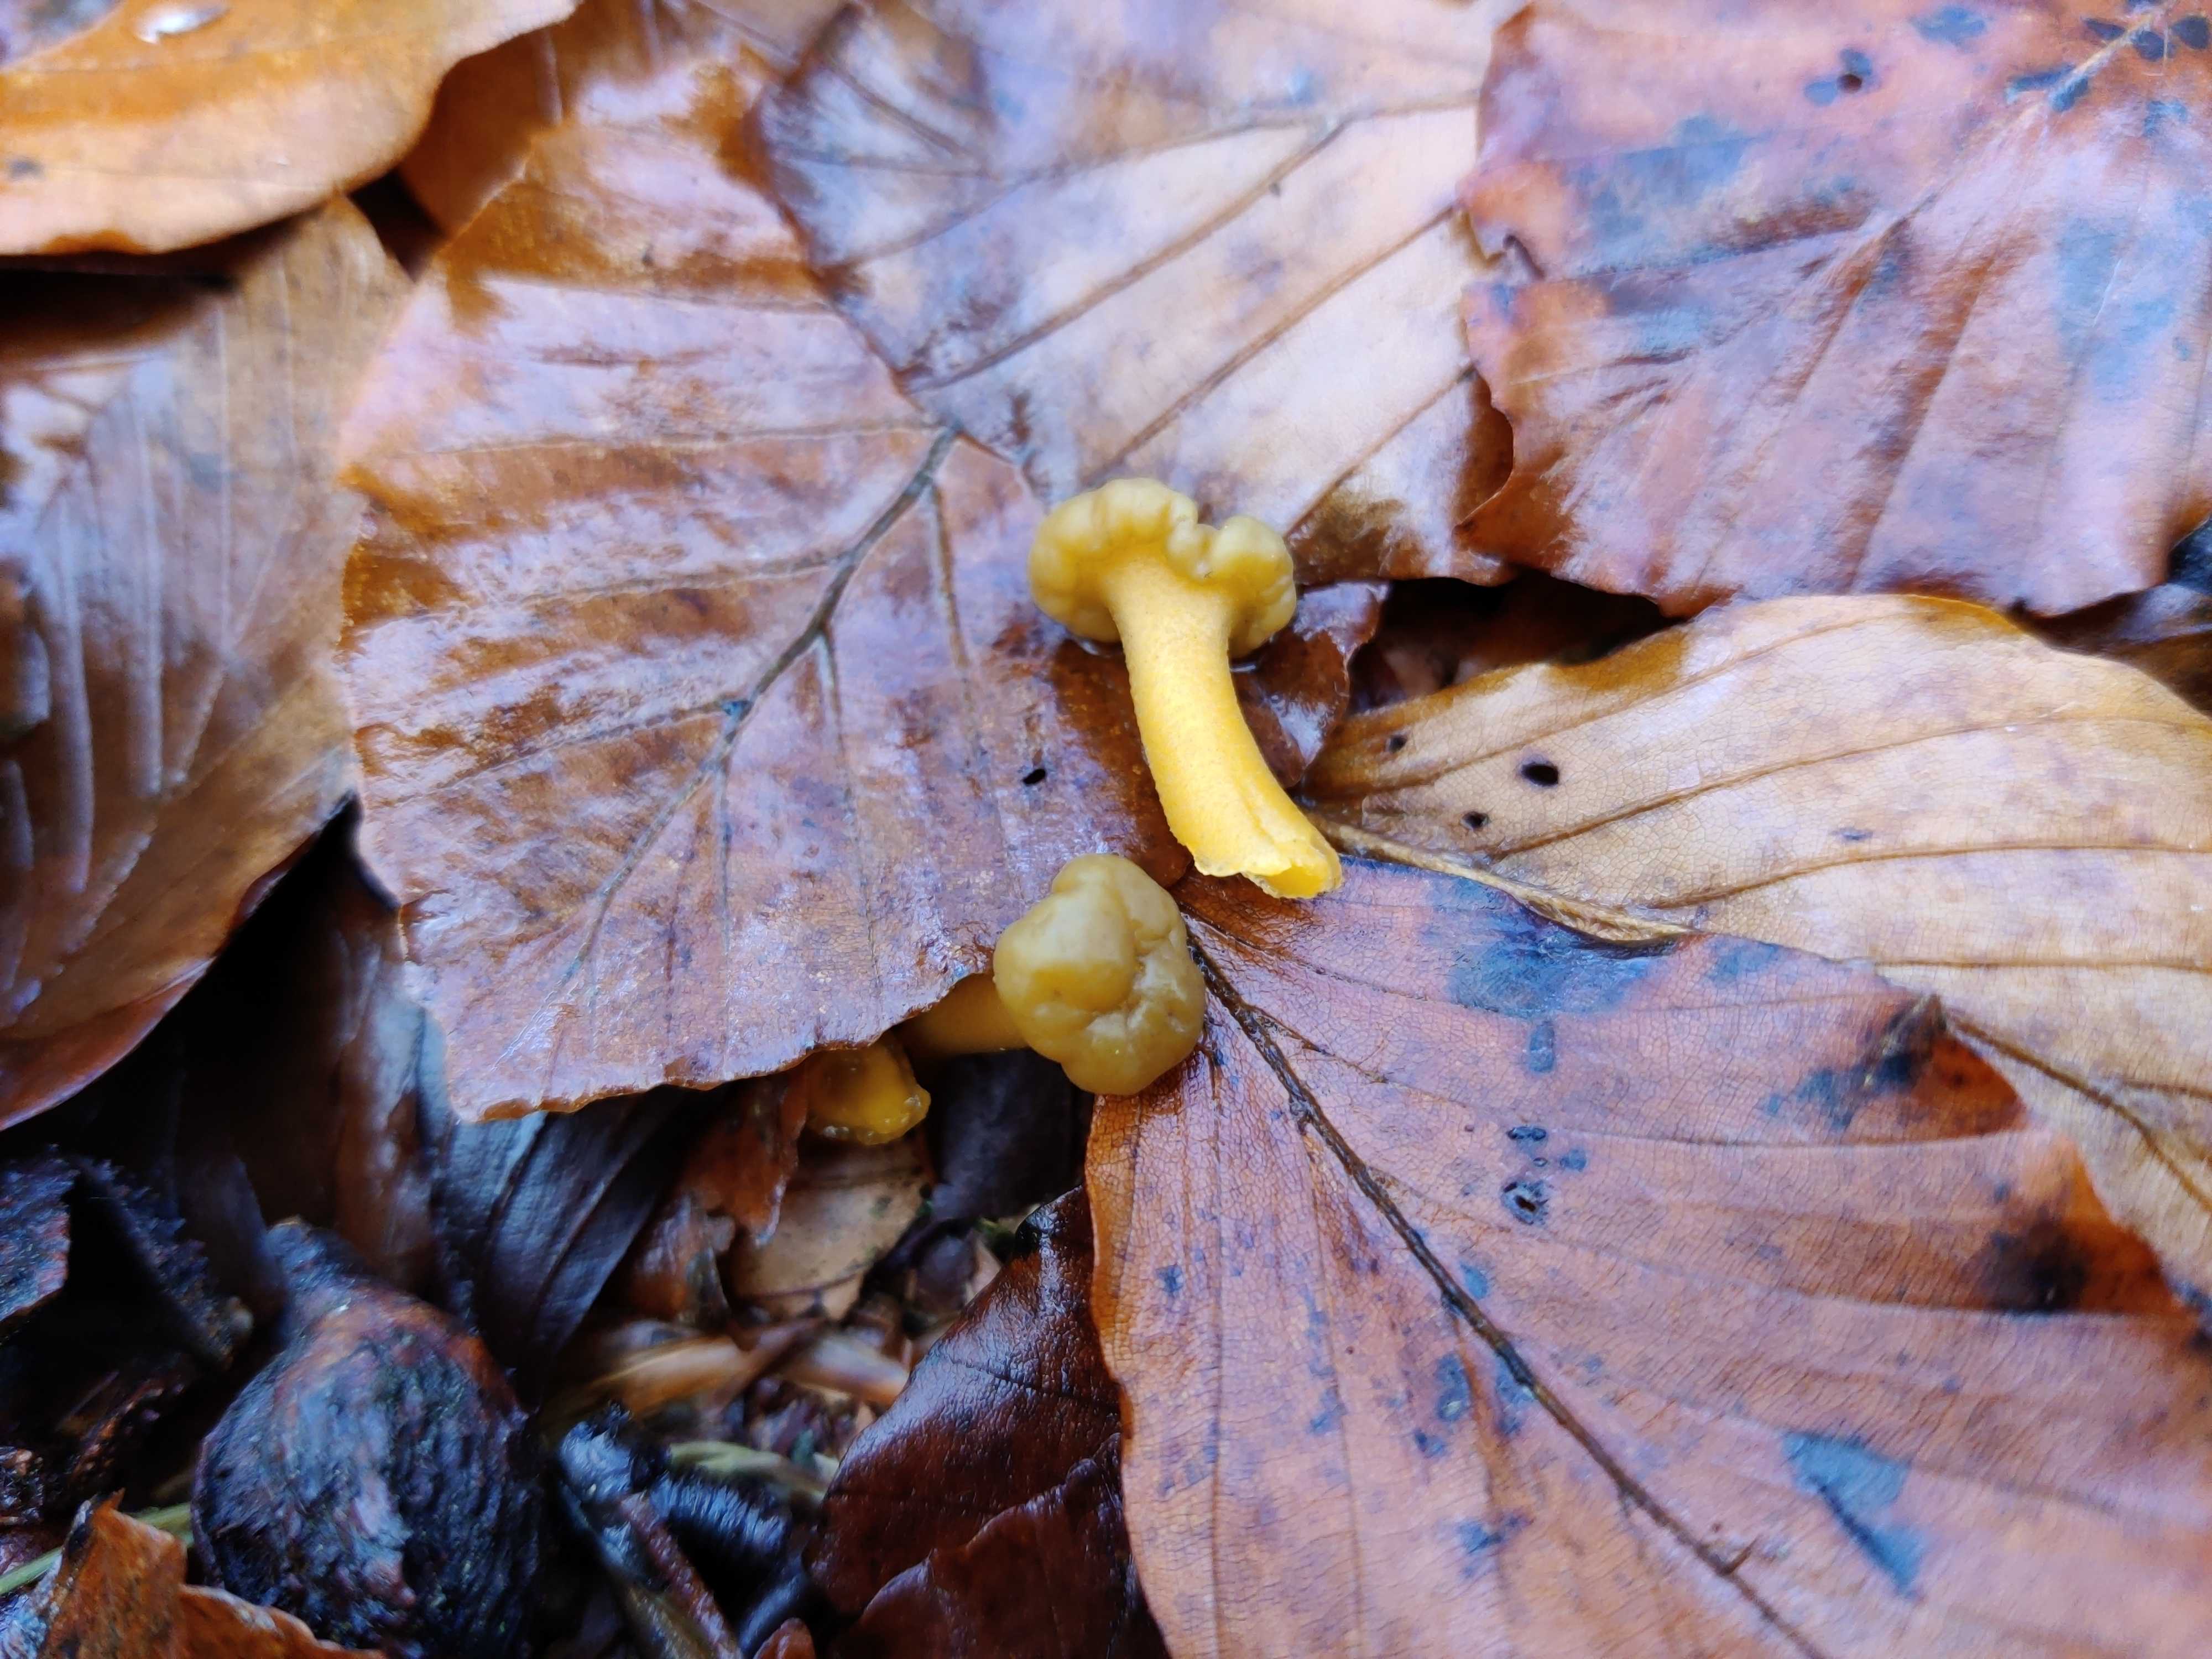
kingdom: Fungi
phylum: Ascomycota
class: Leotiomycetes
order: Leotiales
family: Leotiaceae
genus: Leotia
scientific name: Leotia lubrica
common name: ravsvamp
